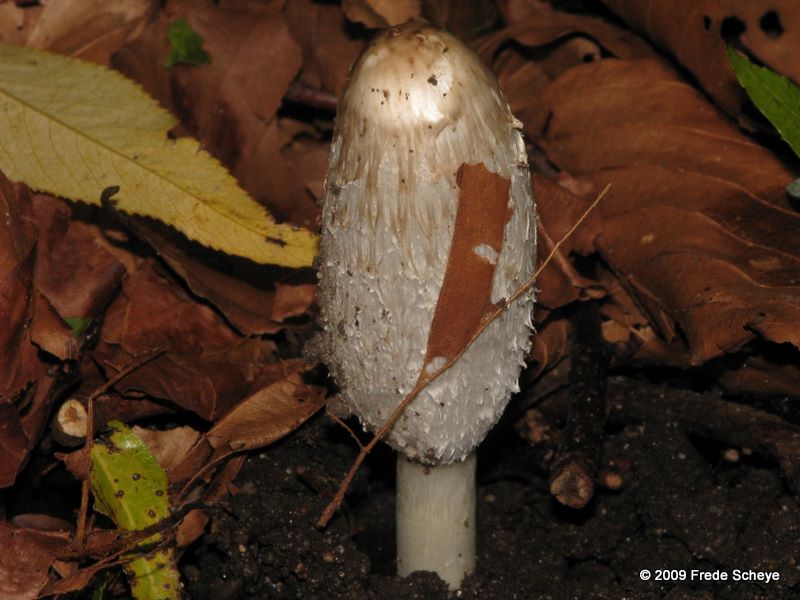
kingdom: Fungi
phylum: Basidiomycota
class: Agaricomycetes
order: Agaricales
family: Agaricaceae
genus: Coprinus
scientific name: Coprinus comatus
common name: stor parykhat
